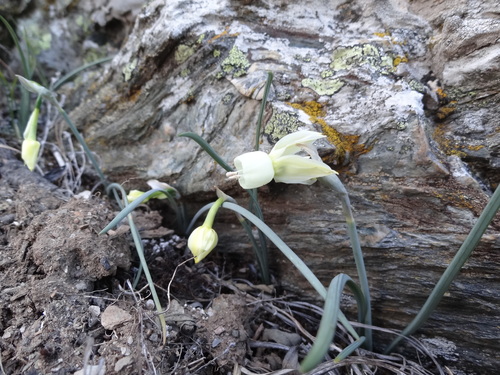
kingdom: Plantae
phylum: Tracheophyta
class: Liliopsida
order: Asparagales
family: Amaryllidaceae
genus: Narcissus
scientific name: Narcissus triandrus
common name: Angel's-tears
